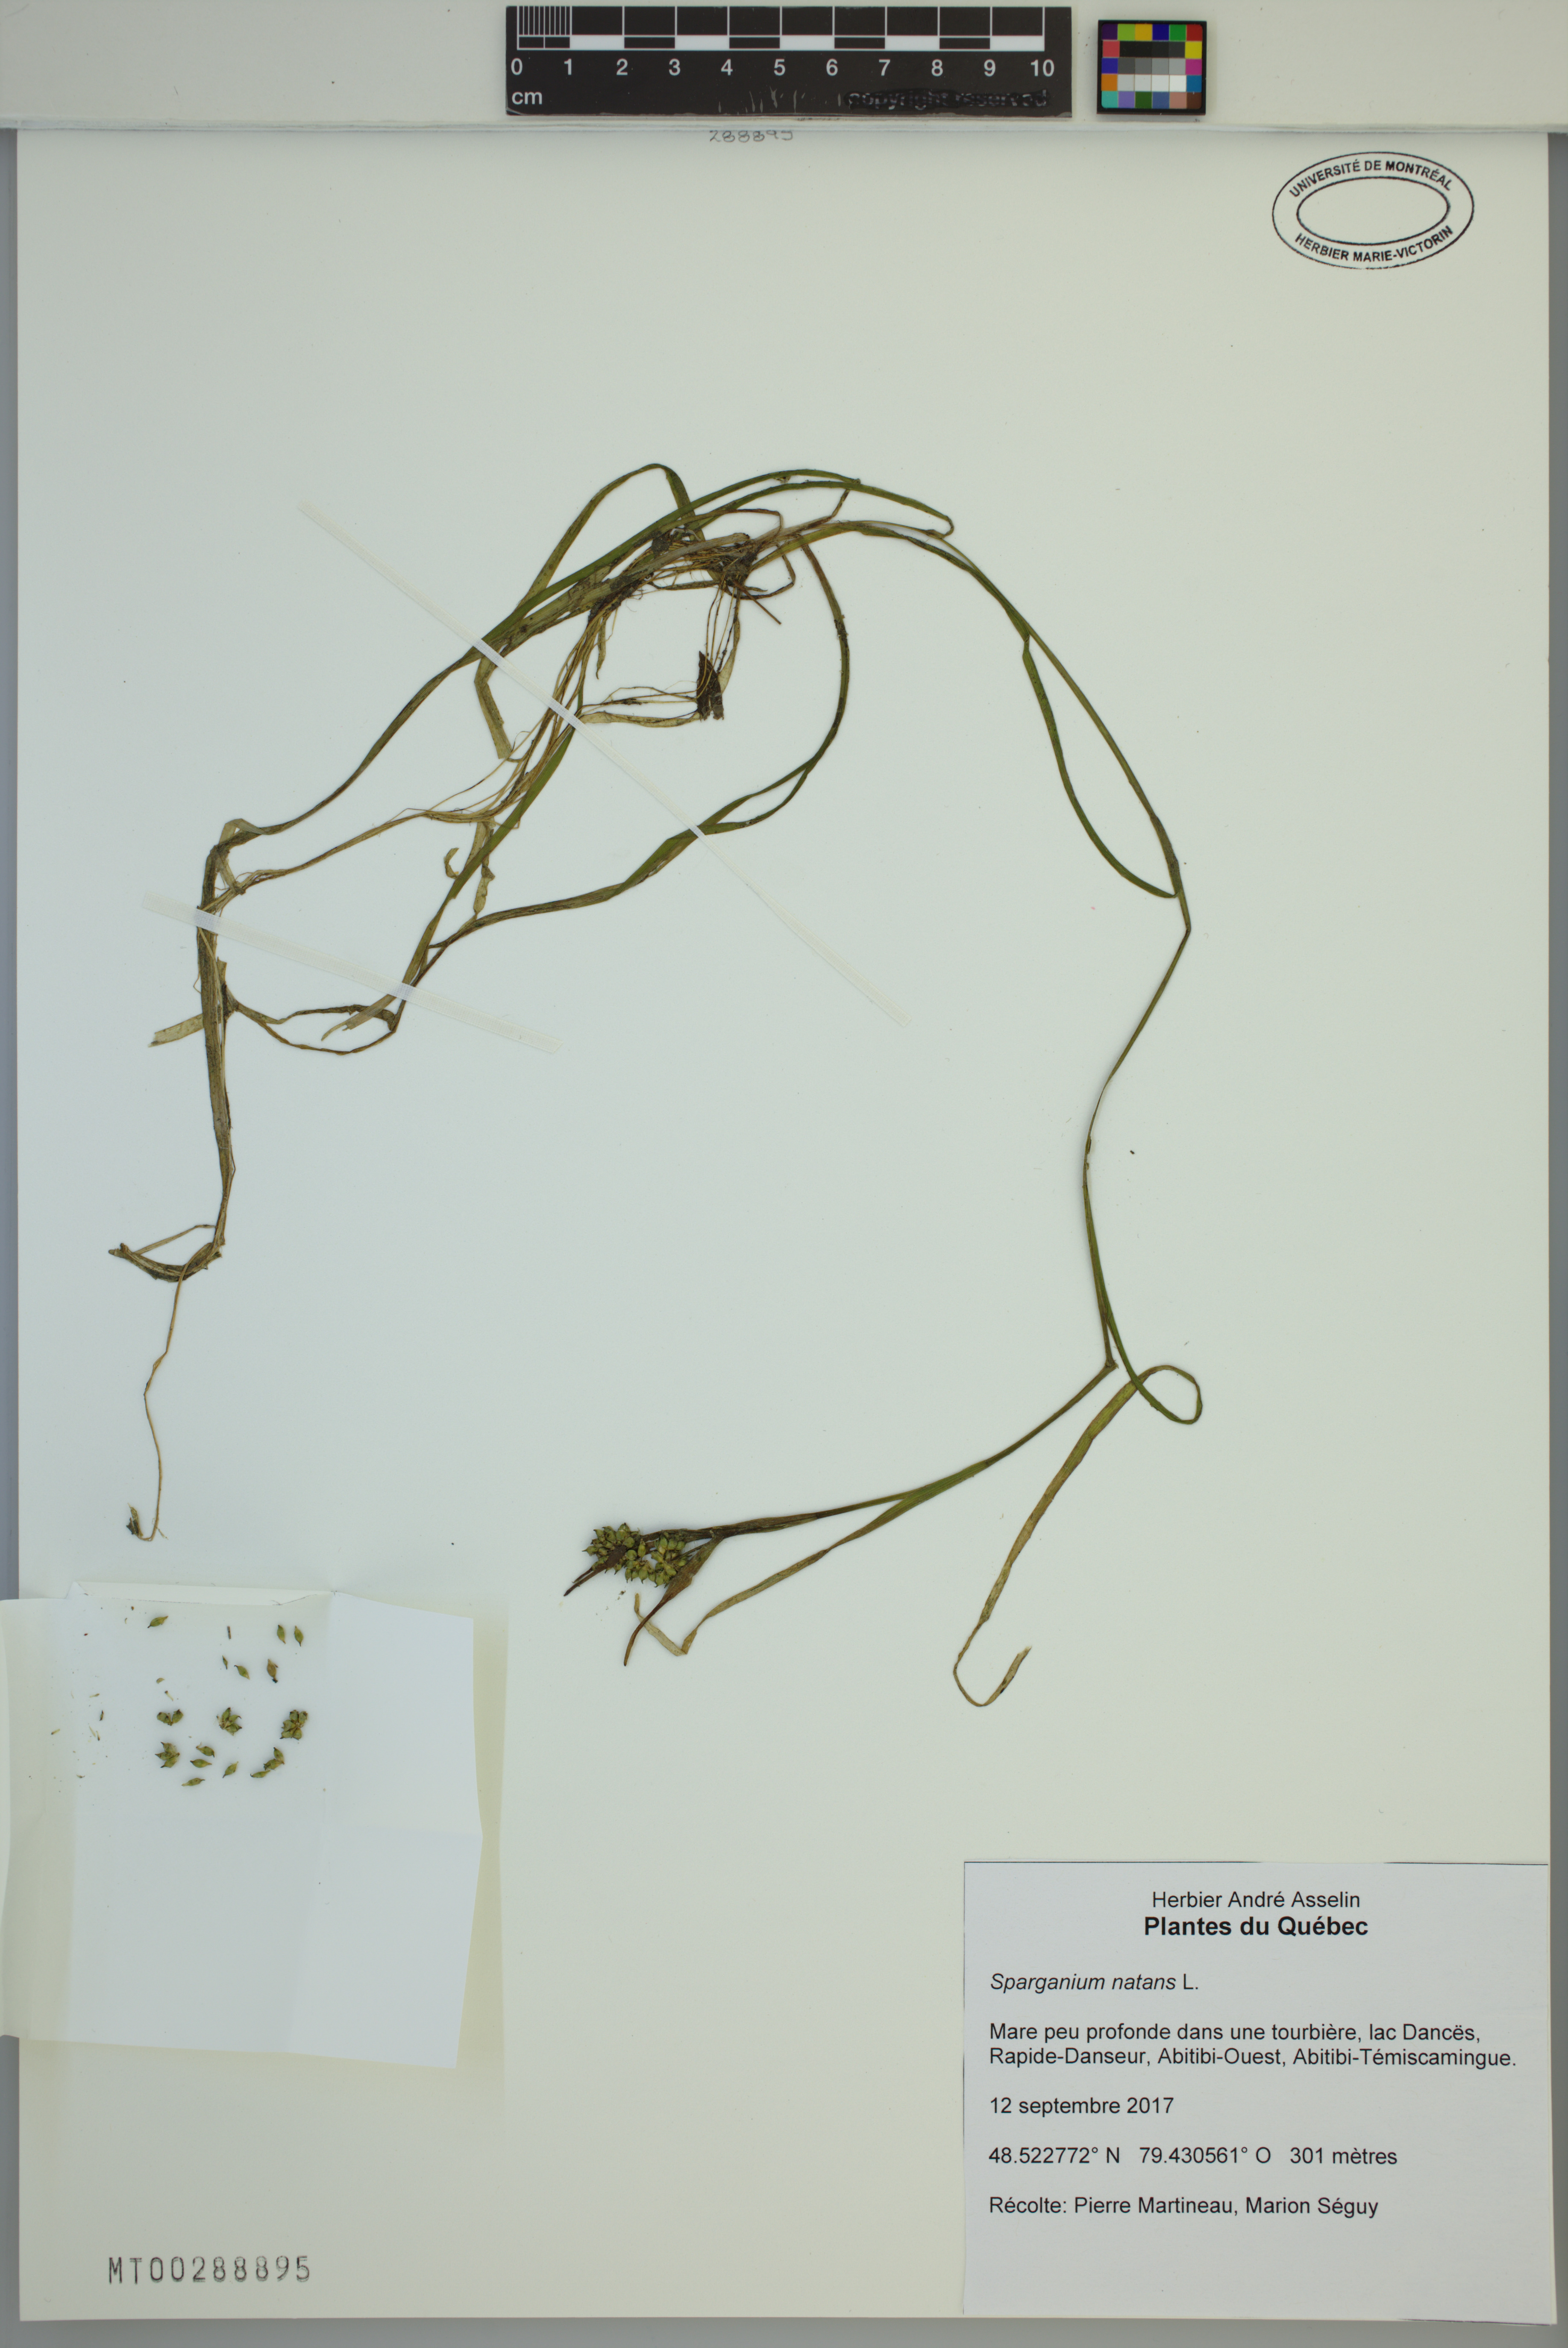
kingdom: Plantae
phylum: Tracheophyta
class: Liliopsida
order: Poales
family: Typhaceae
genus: Sparganium
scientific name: Sparganium natans
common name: Least bur-reed
